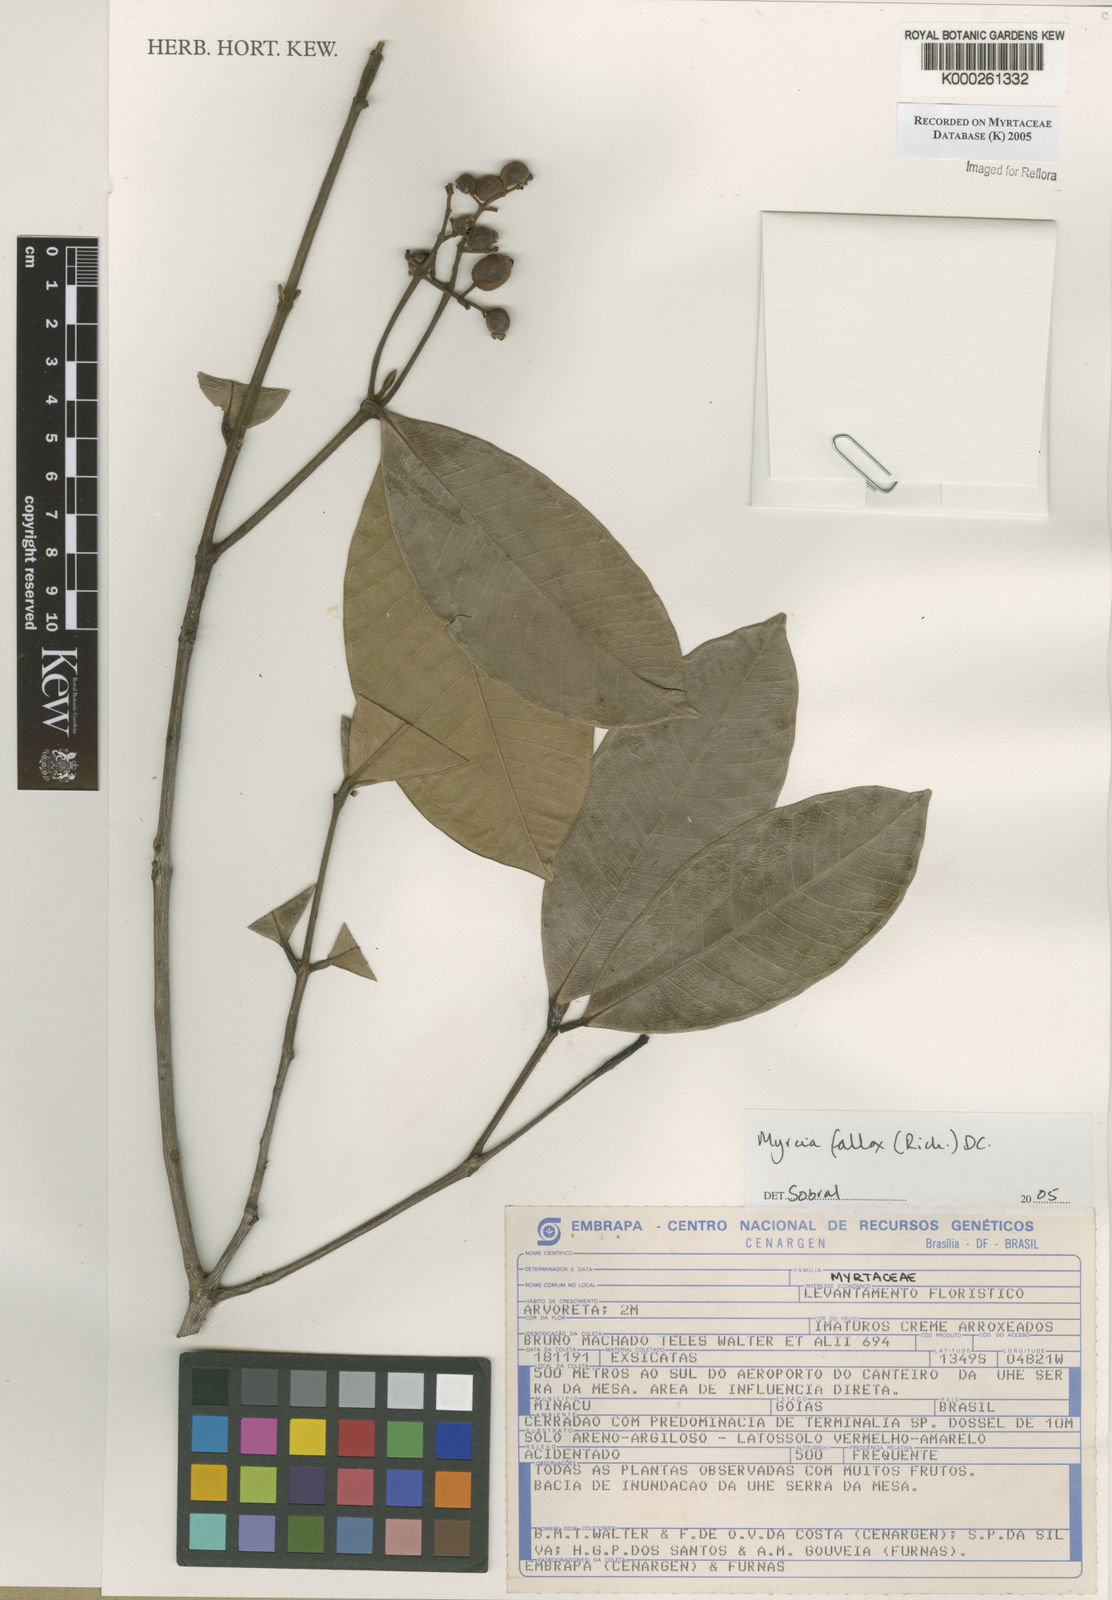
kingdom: Plantae
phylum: Tracheophyta
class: Magnoliopsida
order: Myrtales
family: Myrtaceae
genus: Myrcia
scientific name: Myrcia splendens
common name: Surinam cherry
